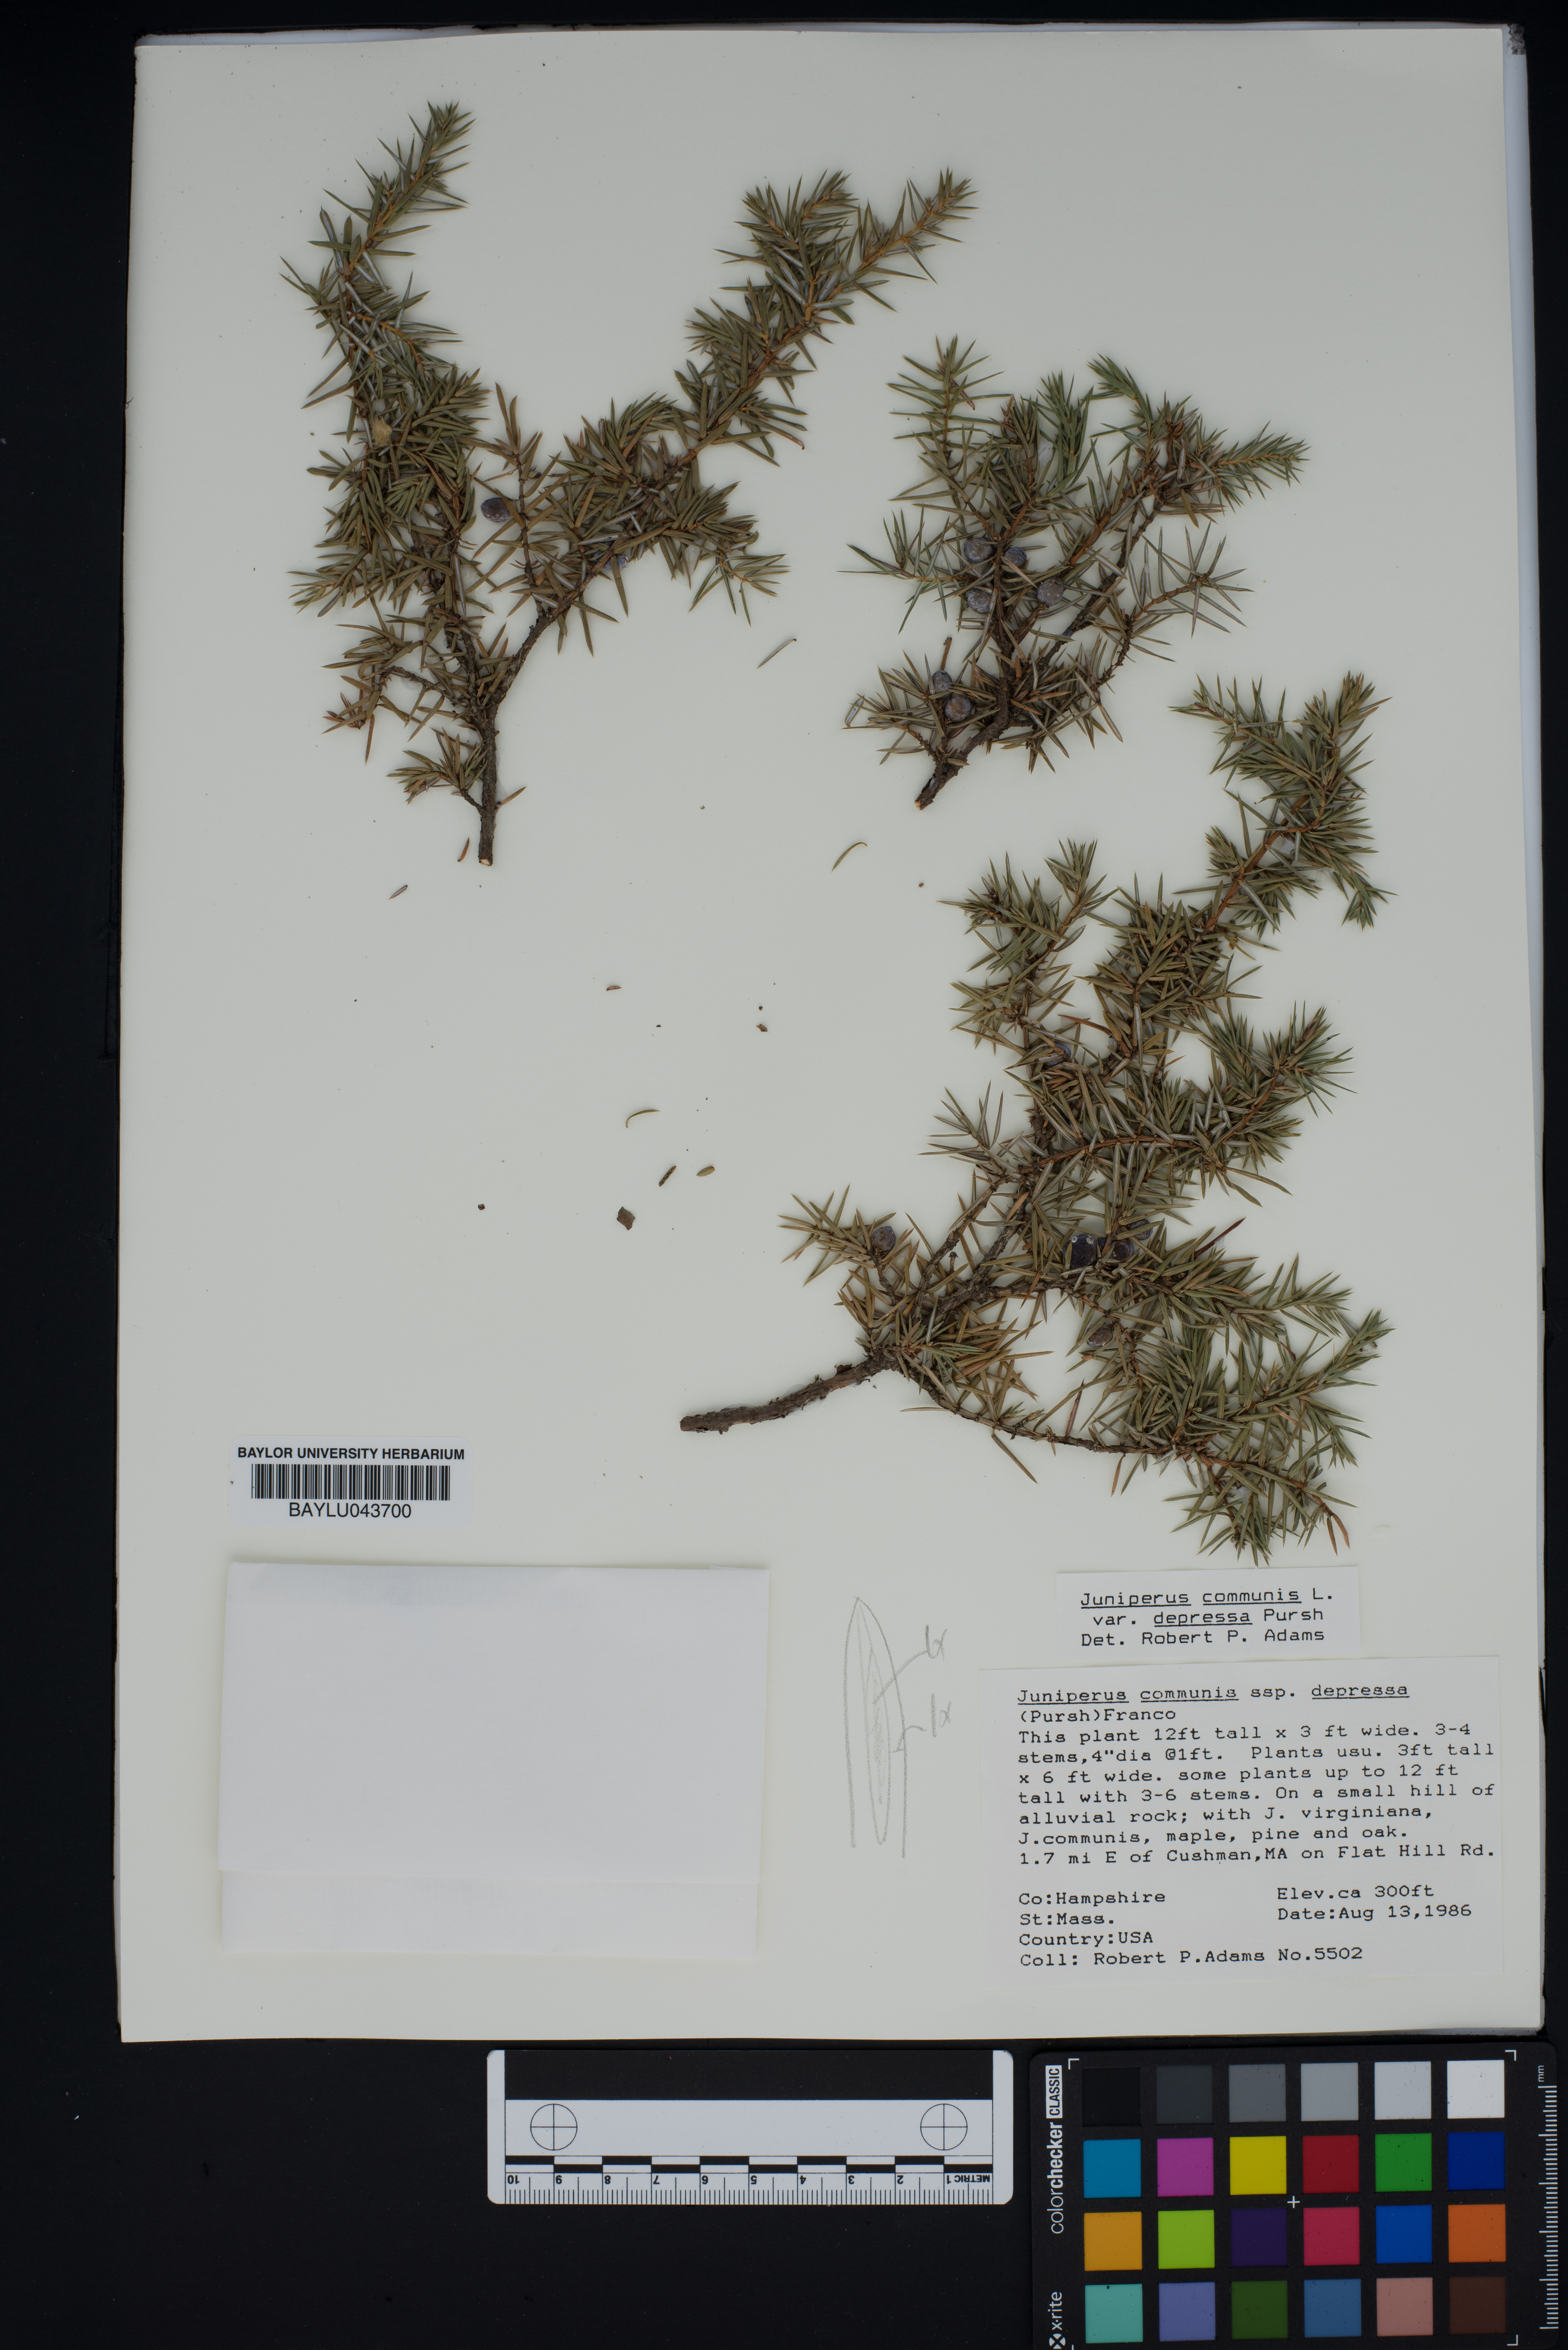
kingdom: Plantae
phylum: Tracheophyta
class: Pinopsida
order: Pinales
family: Cupressaceae
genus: Juniperus
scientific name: Juniperus communis
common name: Common juniper
